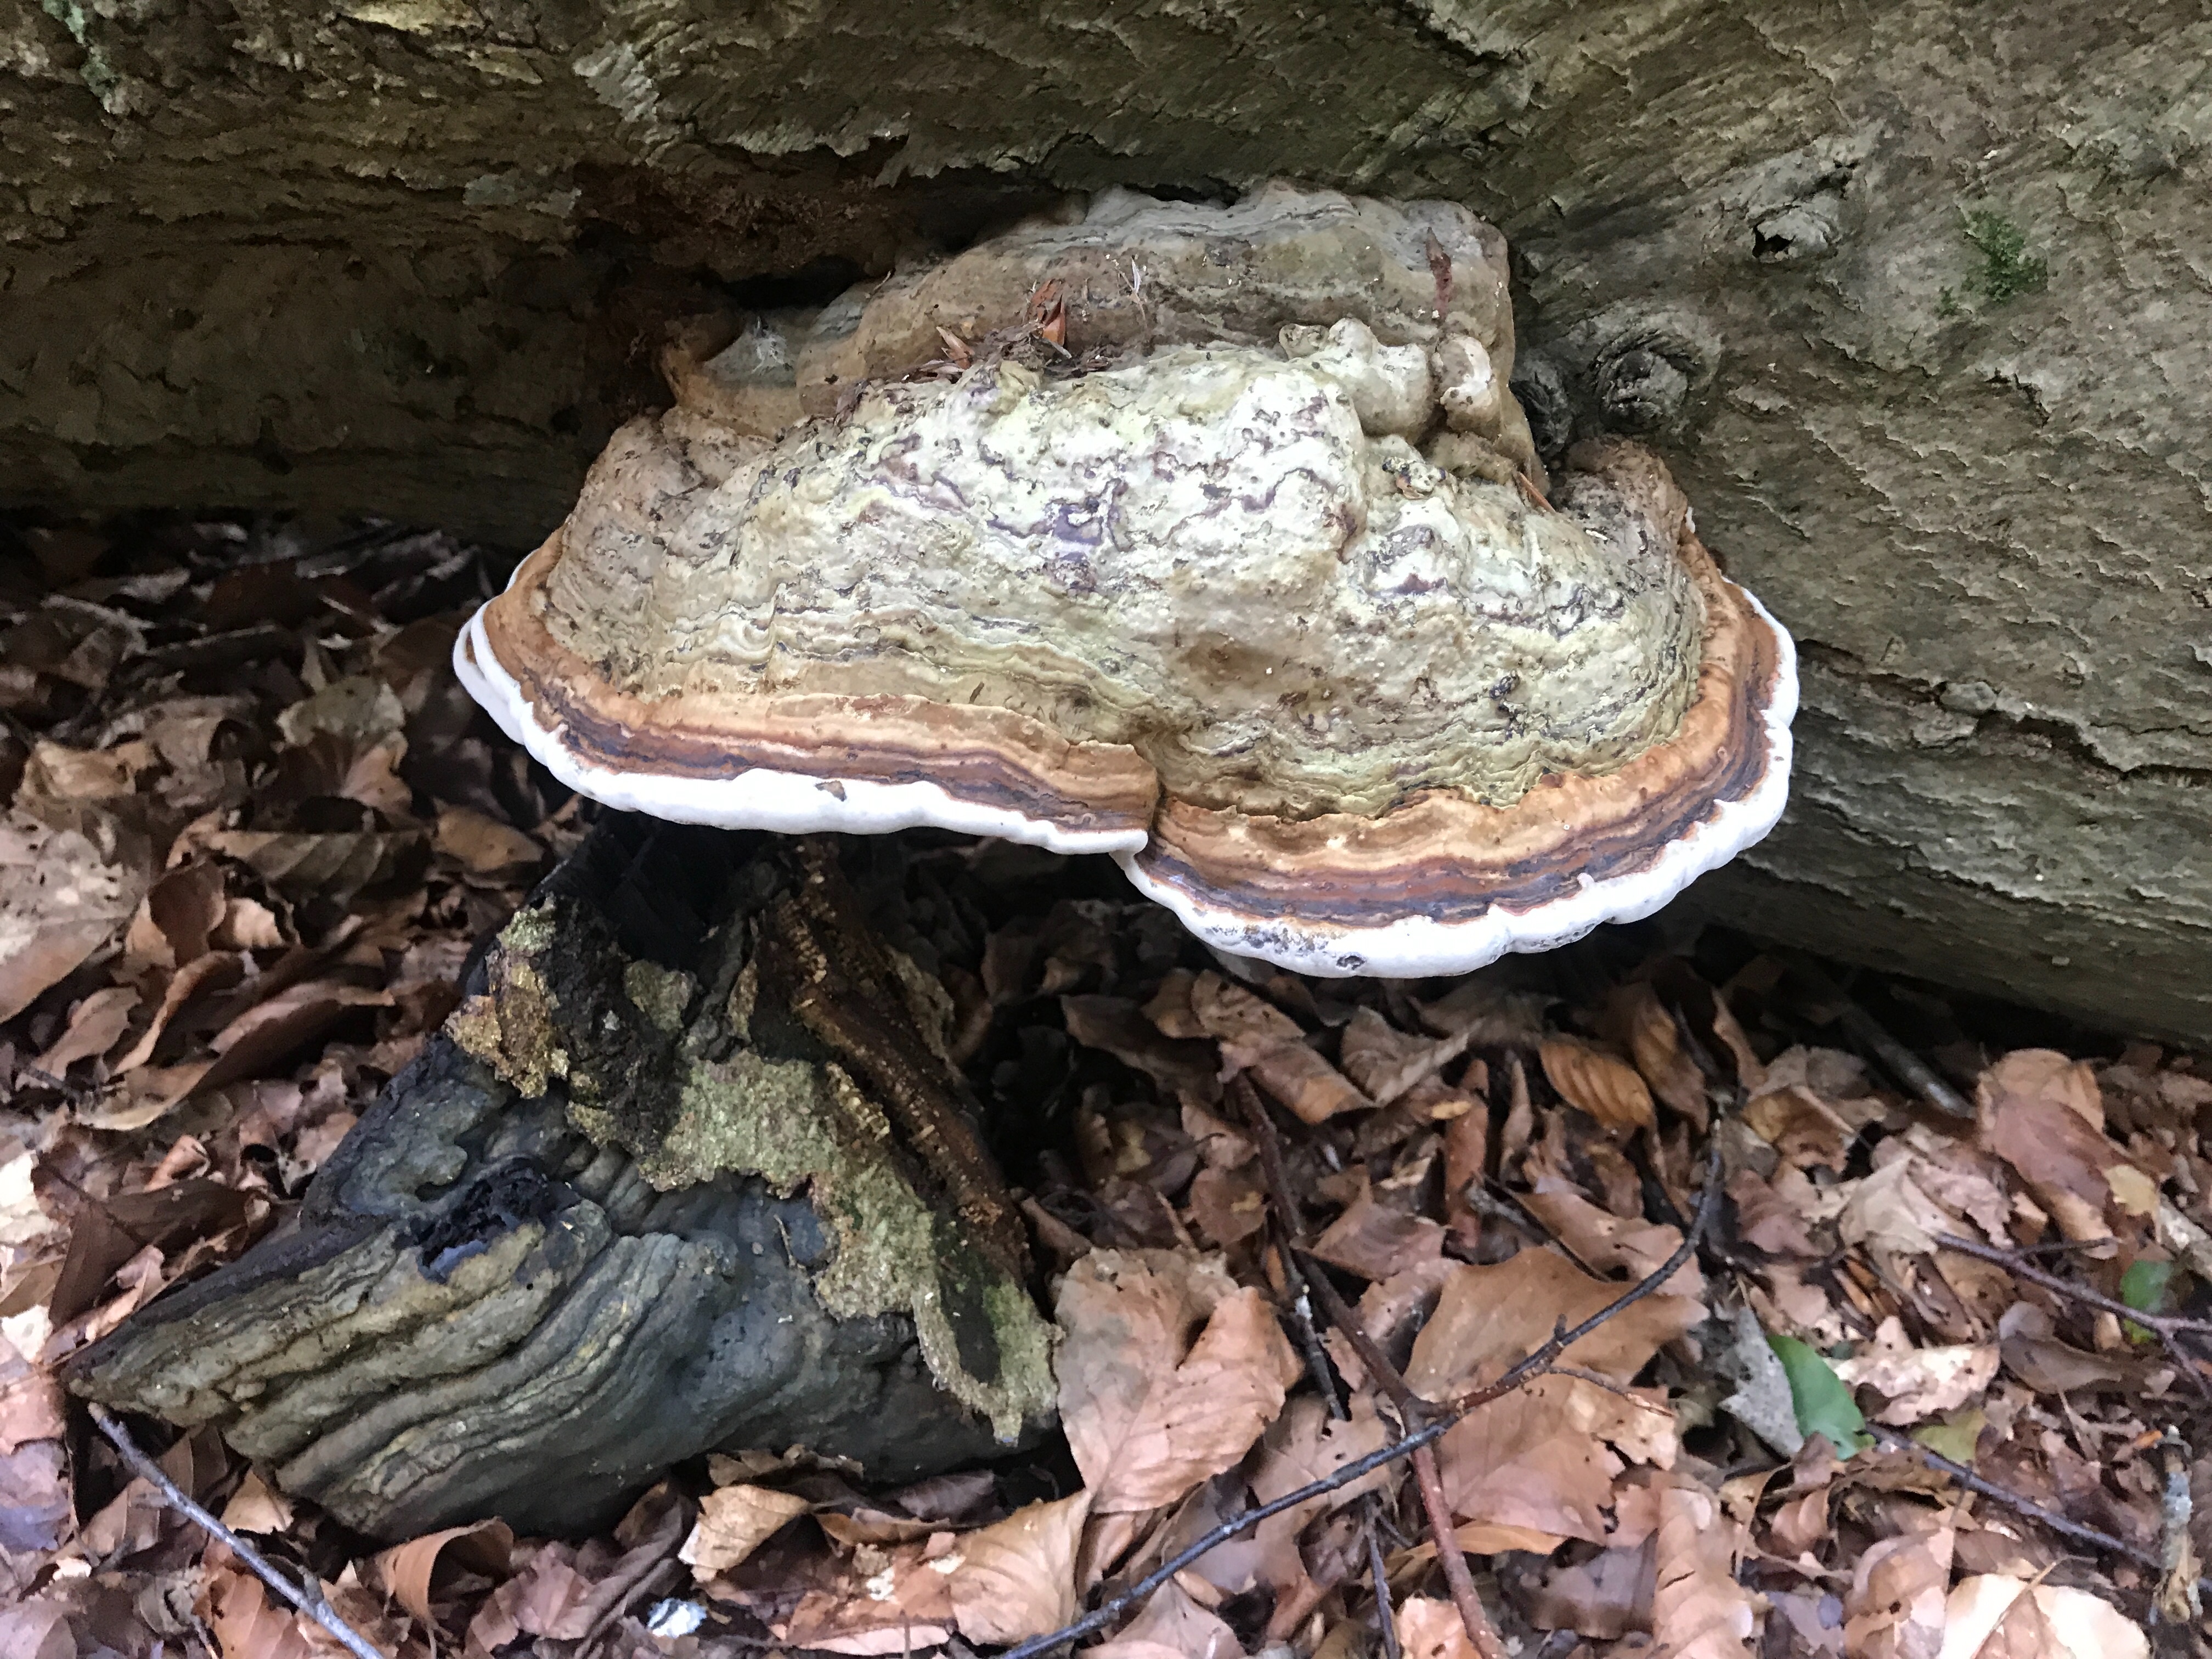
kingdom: Fungi
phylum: Basidiomycota
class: Agaricomycetes
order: Polyporales
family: Polyporaceae
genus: Fomes
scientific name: Fomes fomentarius
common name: tøndersvamp
